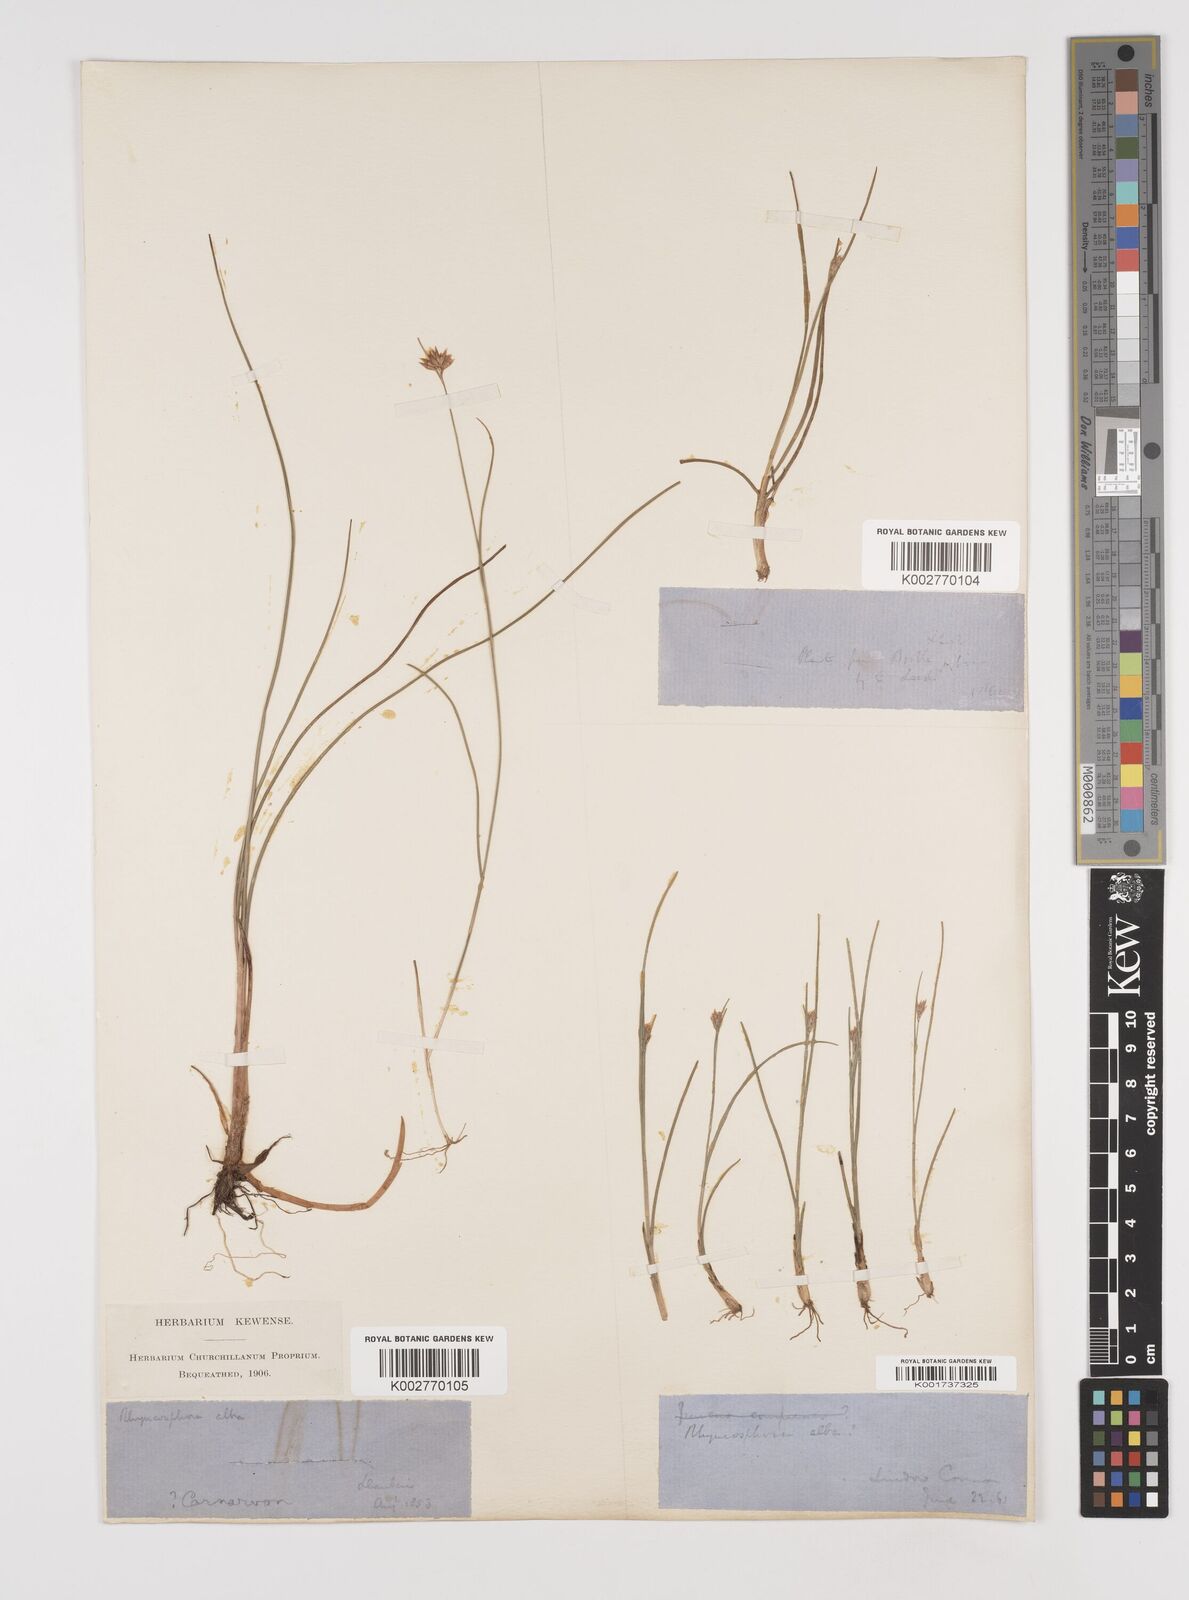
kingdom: Plantae
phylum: Tracheophyta
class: Liliopsida
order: Poales
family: Cyperaceae
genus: Rhynchospora
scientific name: Rhynchospora alba
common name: White beak-sedge
